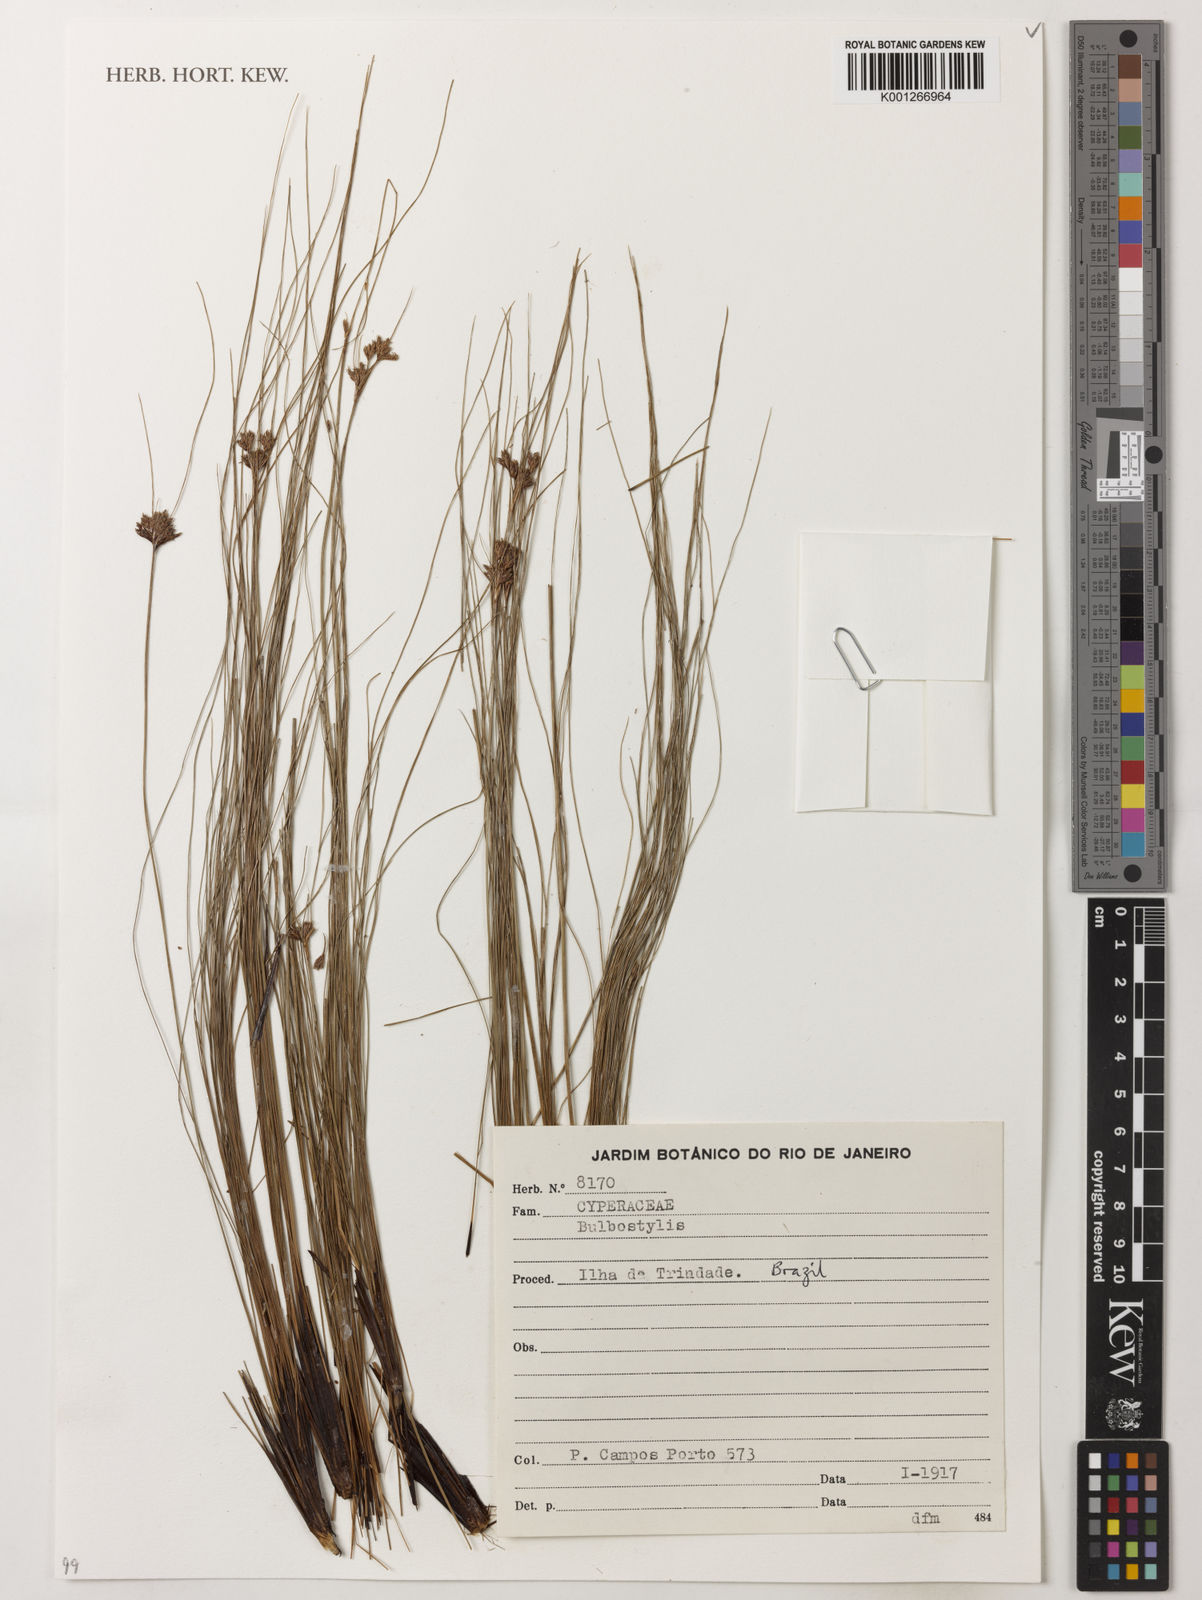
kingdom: Plantae
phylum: Tracheophyta
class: Liliopsida
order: Poales
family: Cyperaceae
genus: Bulbostylis
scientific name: Bulbostylis
